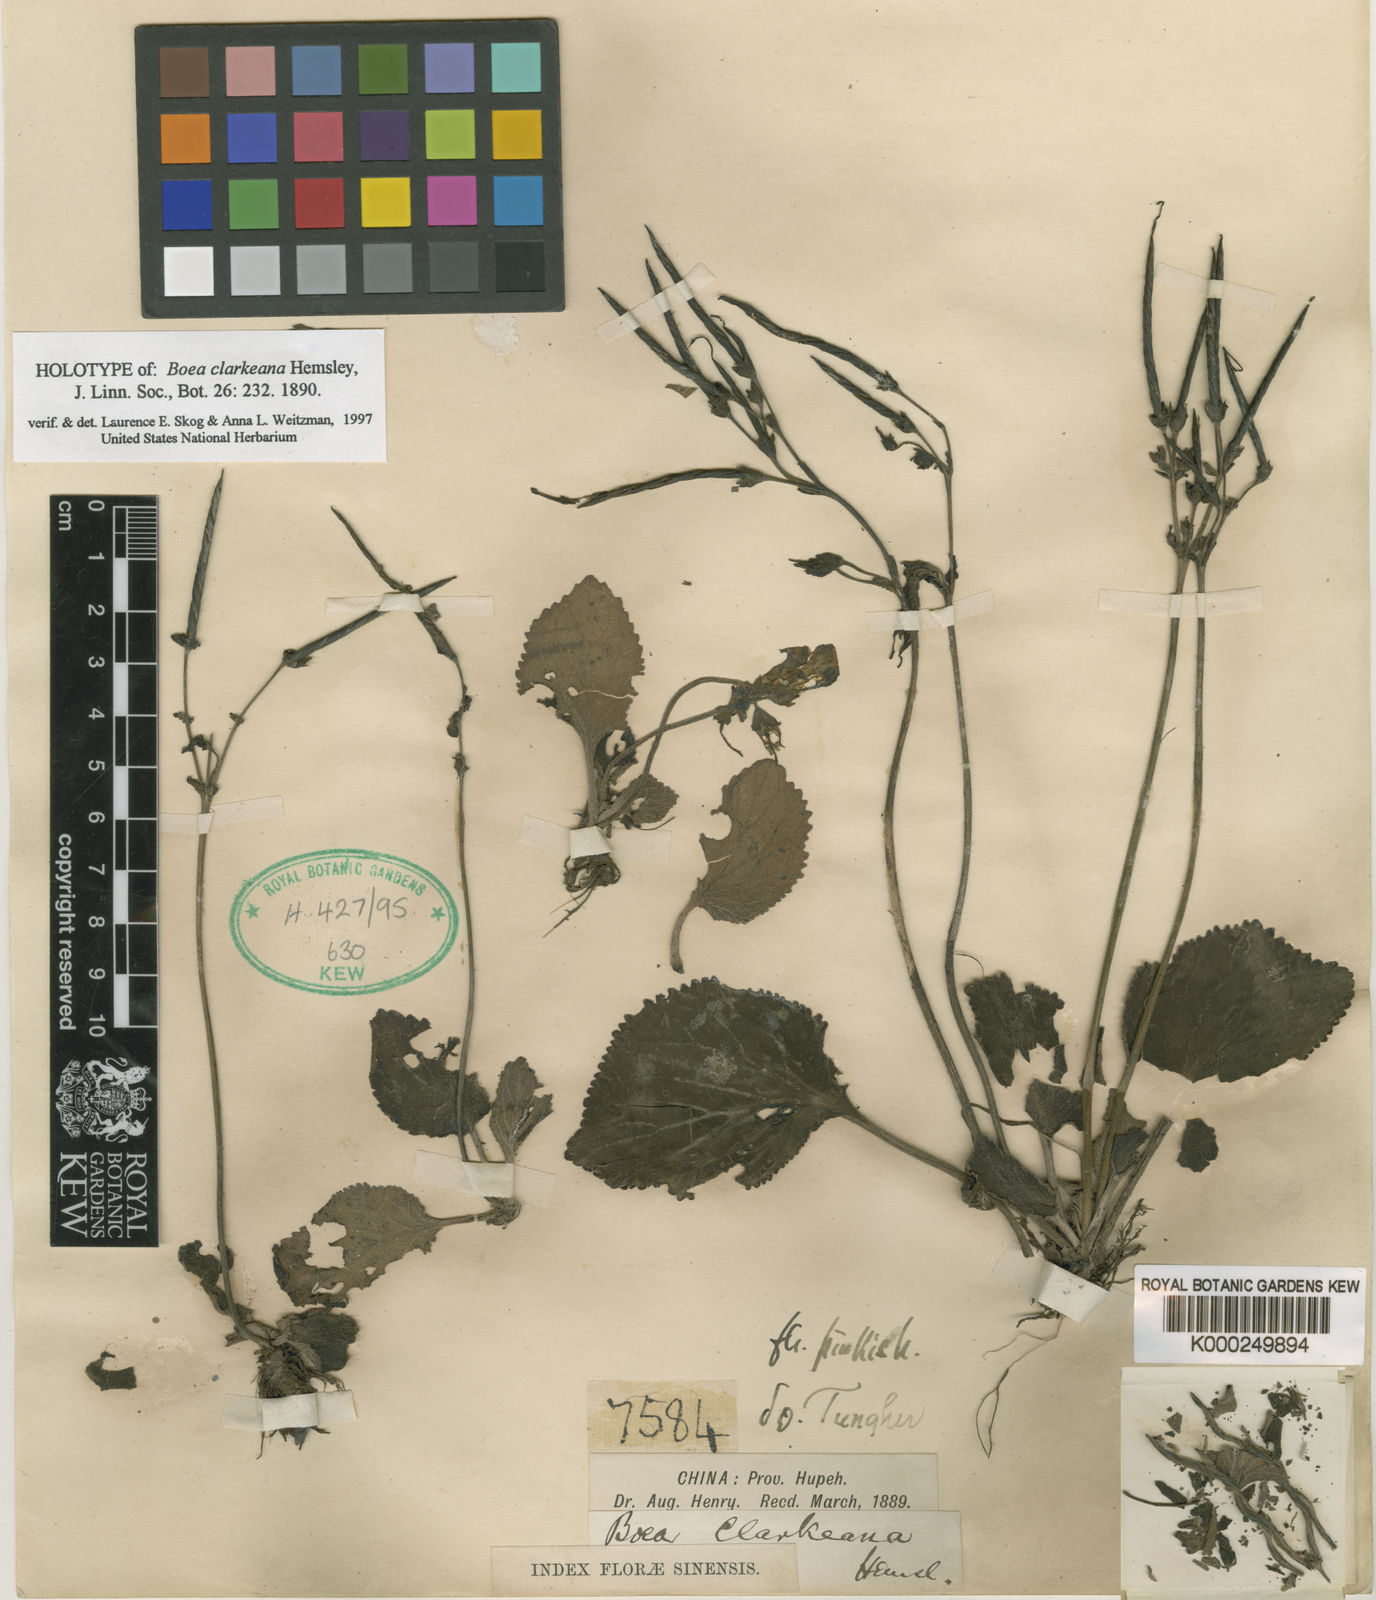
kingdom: Plantae
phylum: Tracheophyta
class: Magnoliopsida
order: Lamiales
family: Gesneriaceae
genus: Damrongia
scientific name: Damrongia clarkeana
